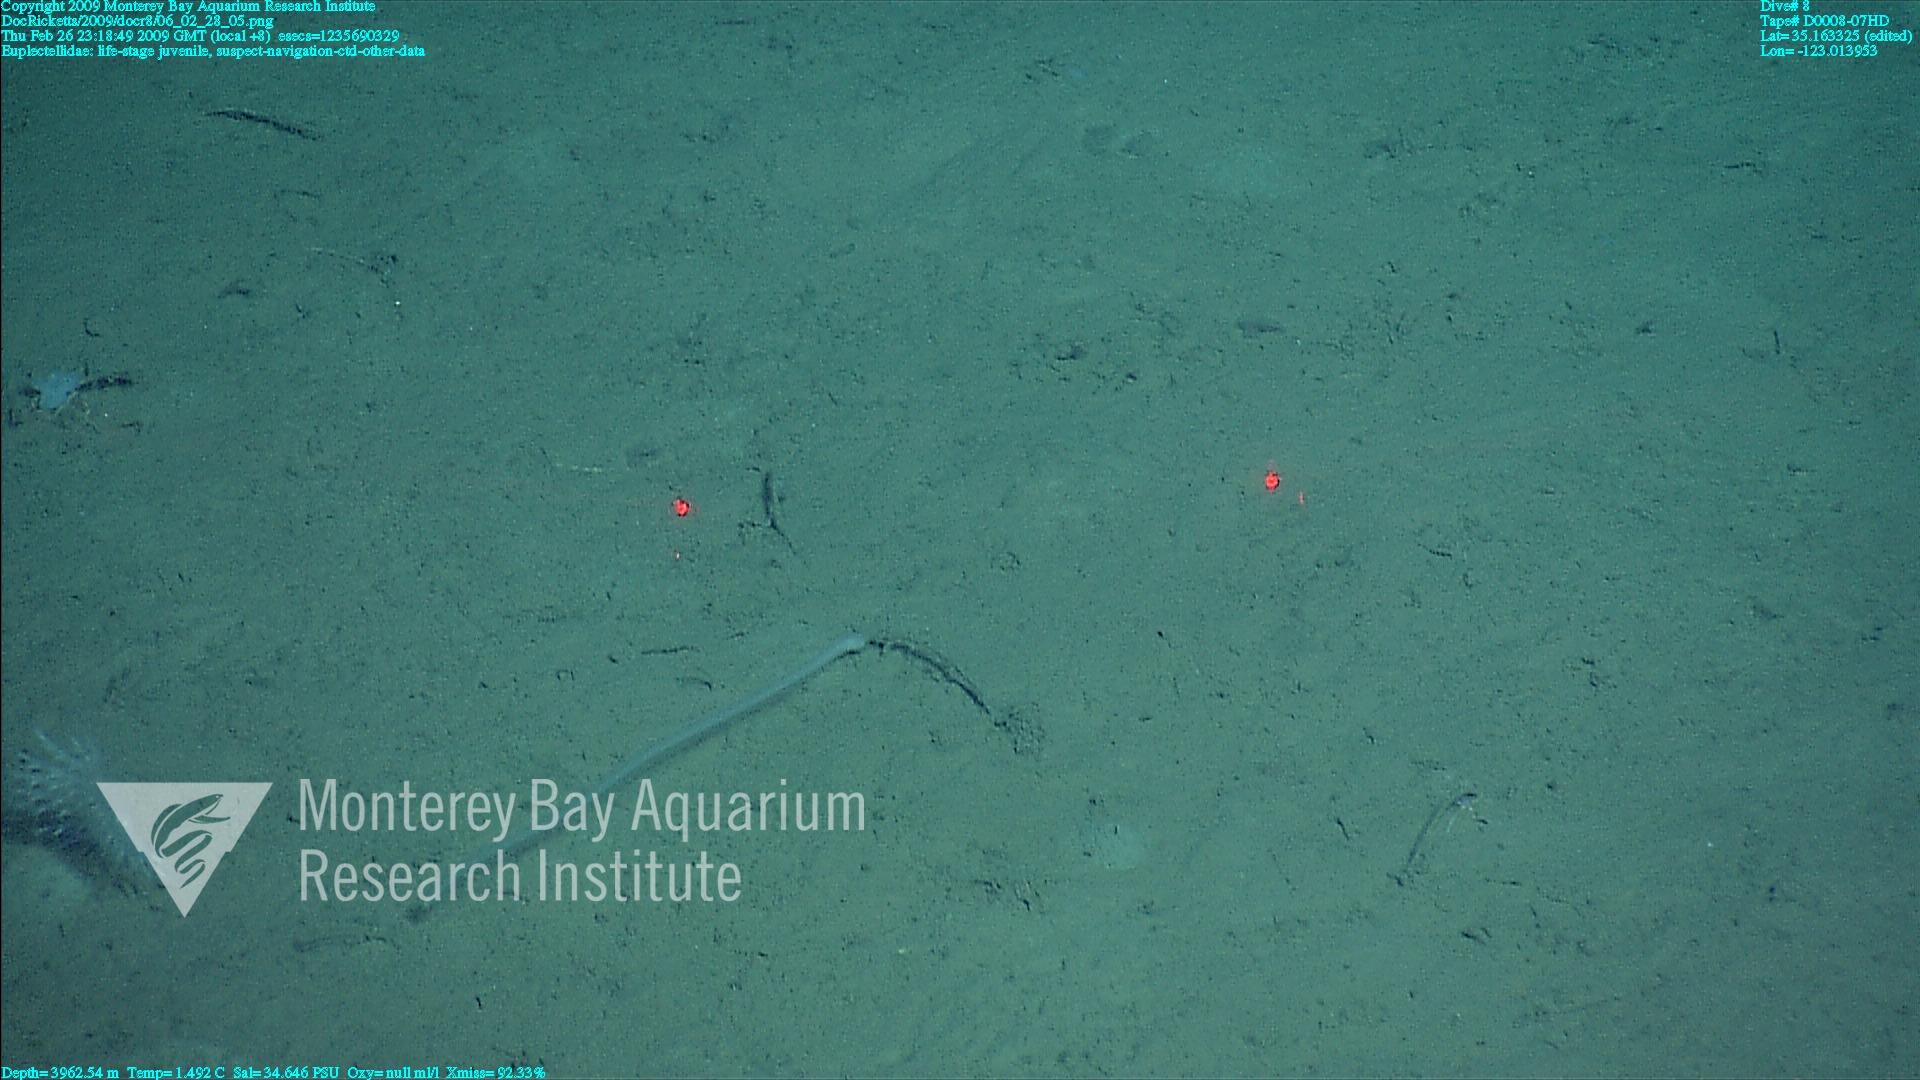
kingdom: Animalia
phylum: Porifera
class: Hexactinellida
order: Lyssacinosida
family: Euplectellidae
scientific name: Euplectellidae
